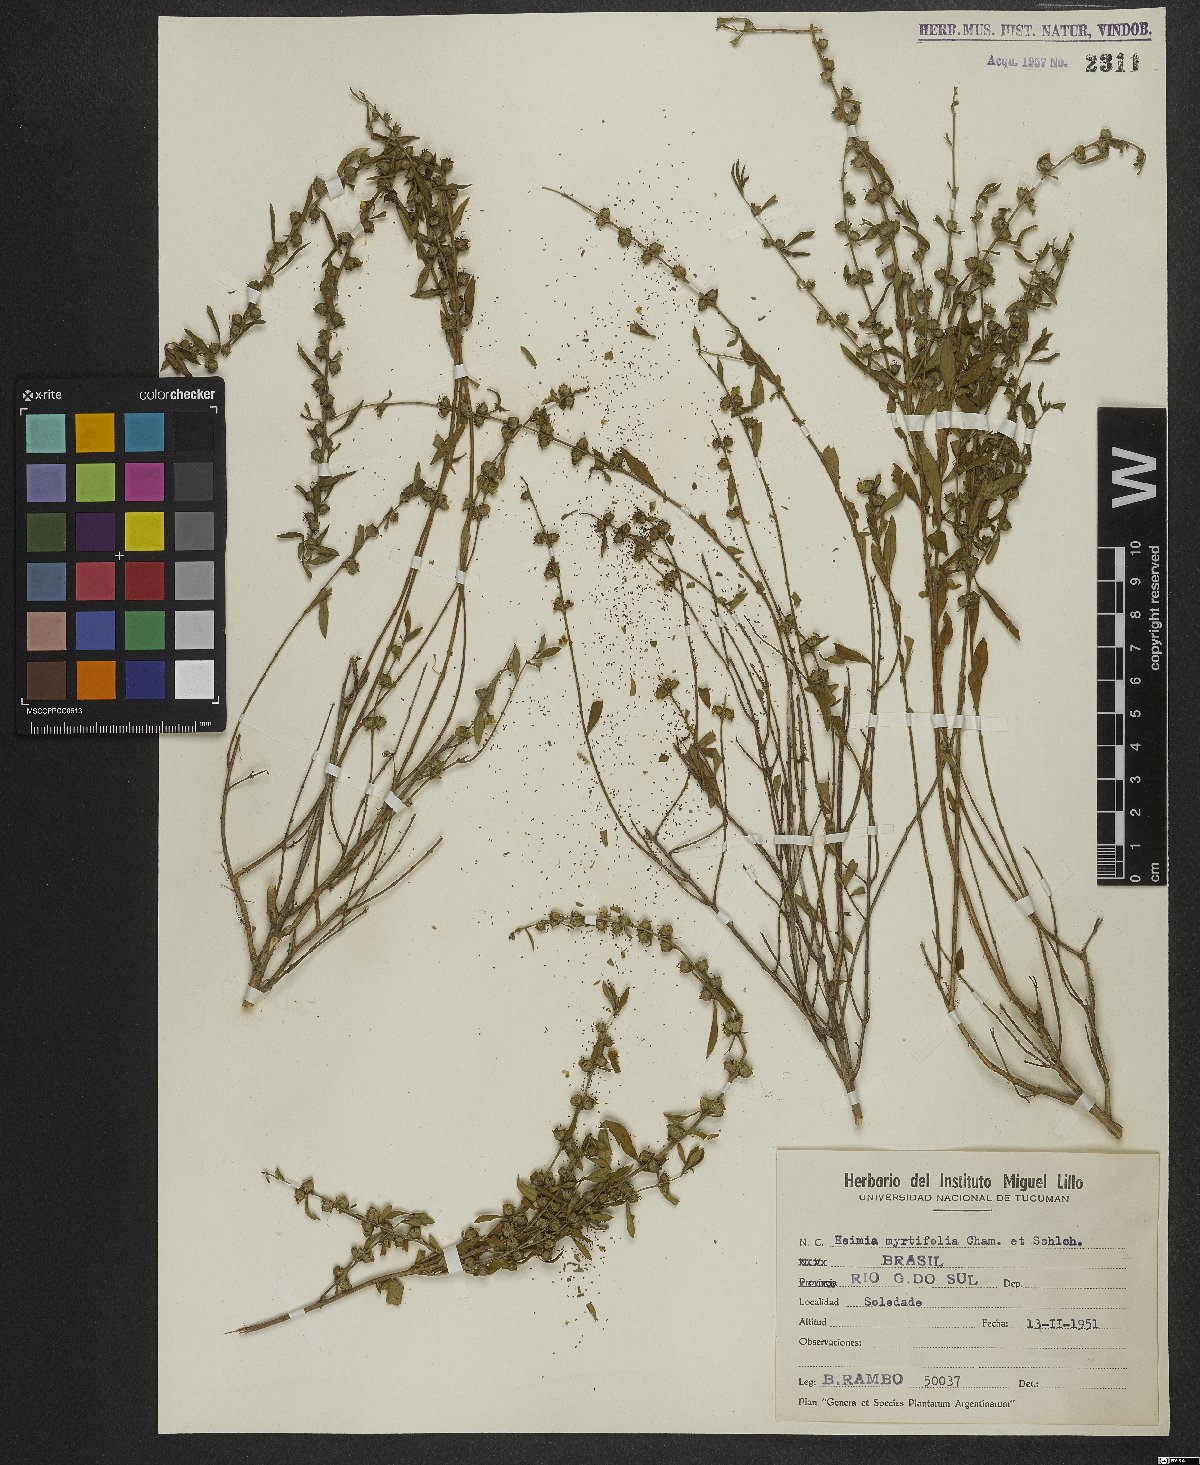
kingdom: Plantae
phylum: Tracheophyta
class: Magnoliopsida
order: Myrtales
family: Lythraceae
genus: Heimia
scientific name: Heimia apetala
